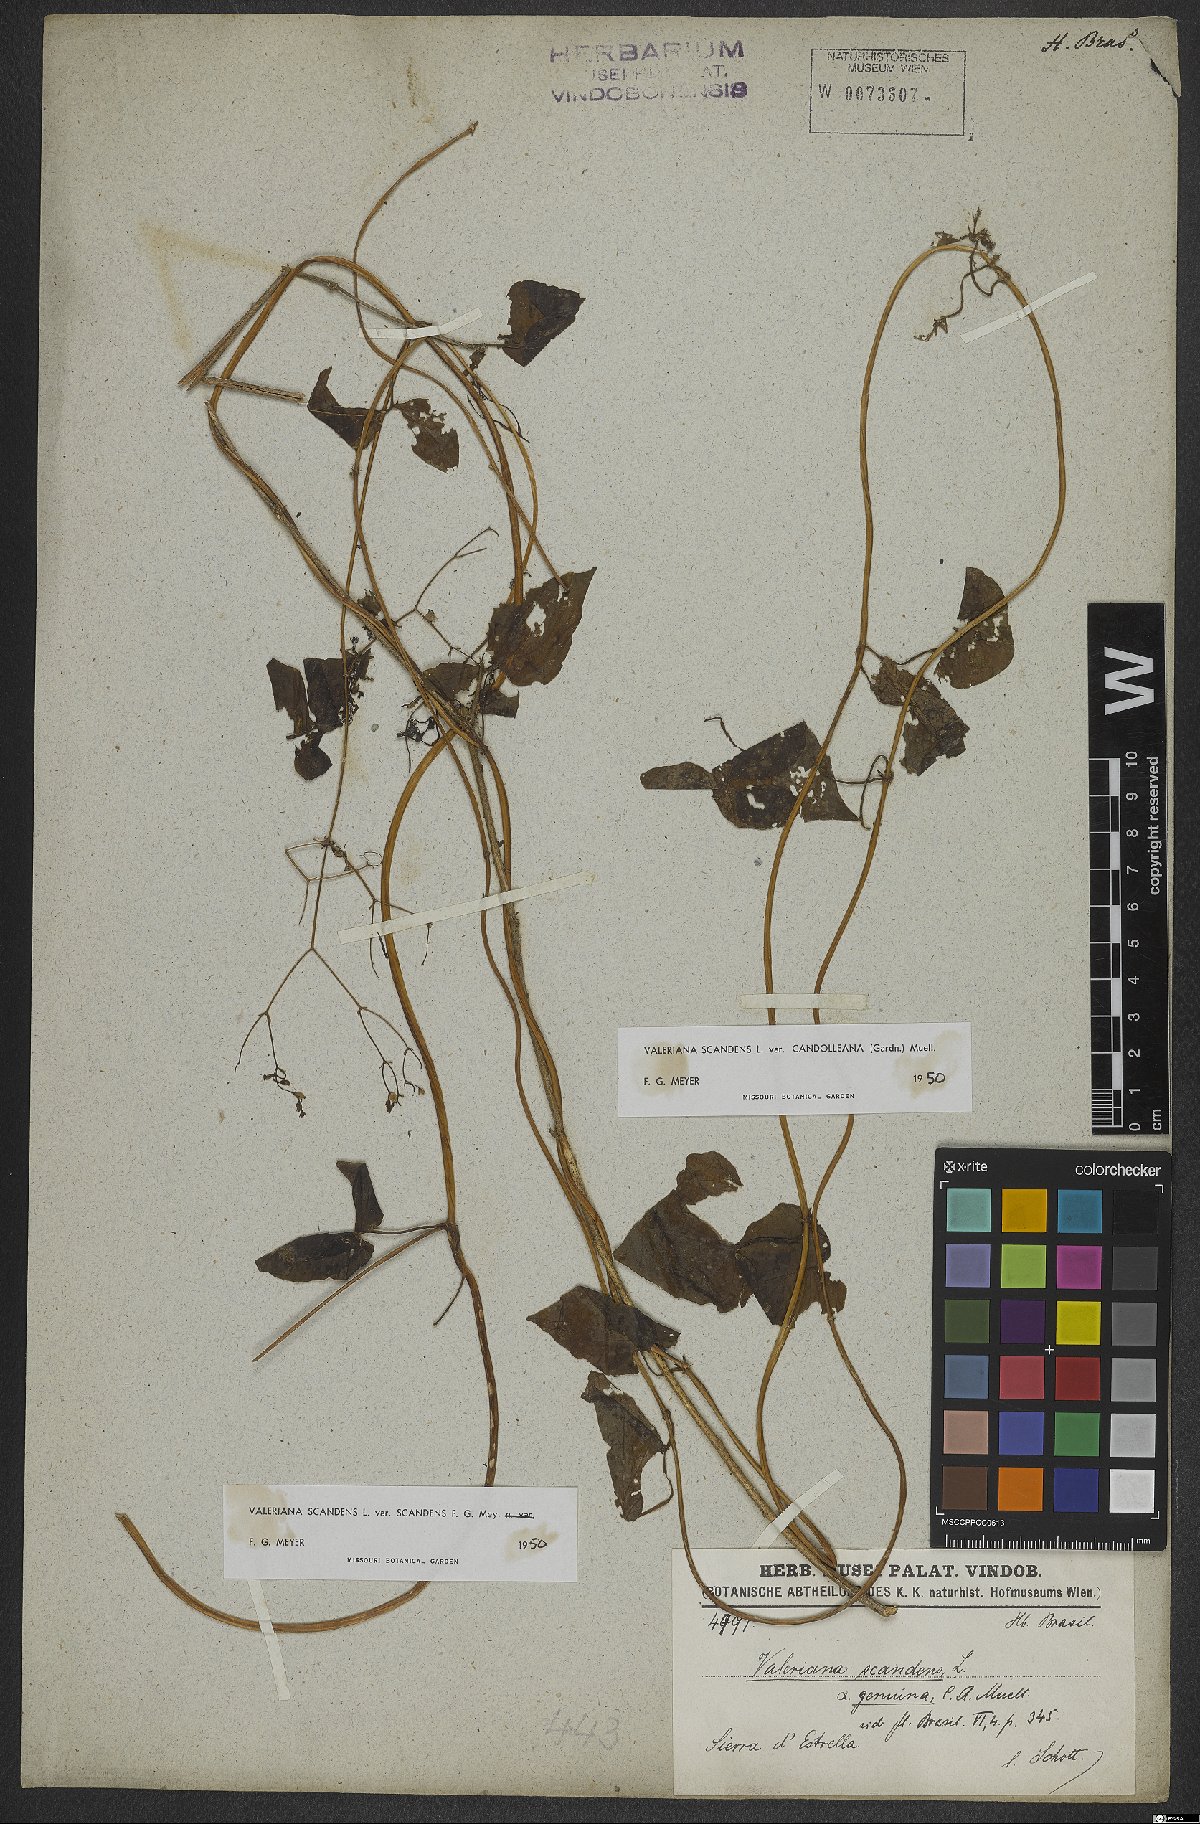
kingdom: Plantae
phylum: Tracheophyta
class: Magnoliopsida
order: Dipsacales
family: Caprifoliaceae
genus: Valeriana
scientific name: Valeriana scandens
